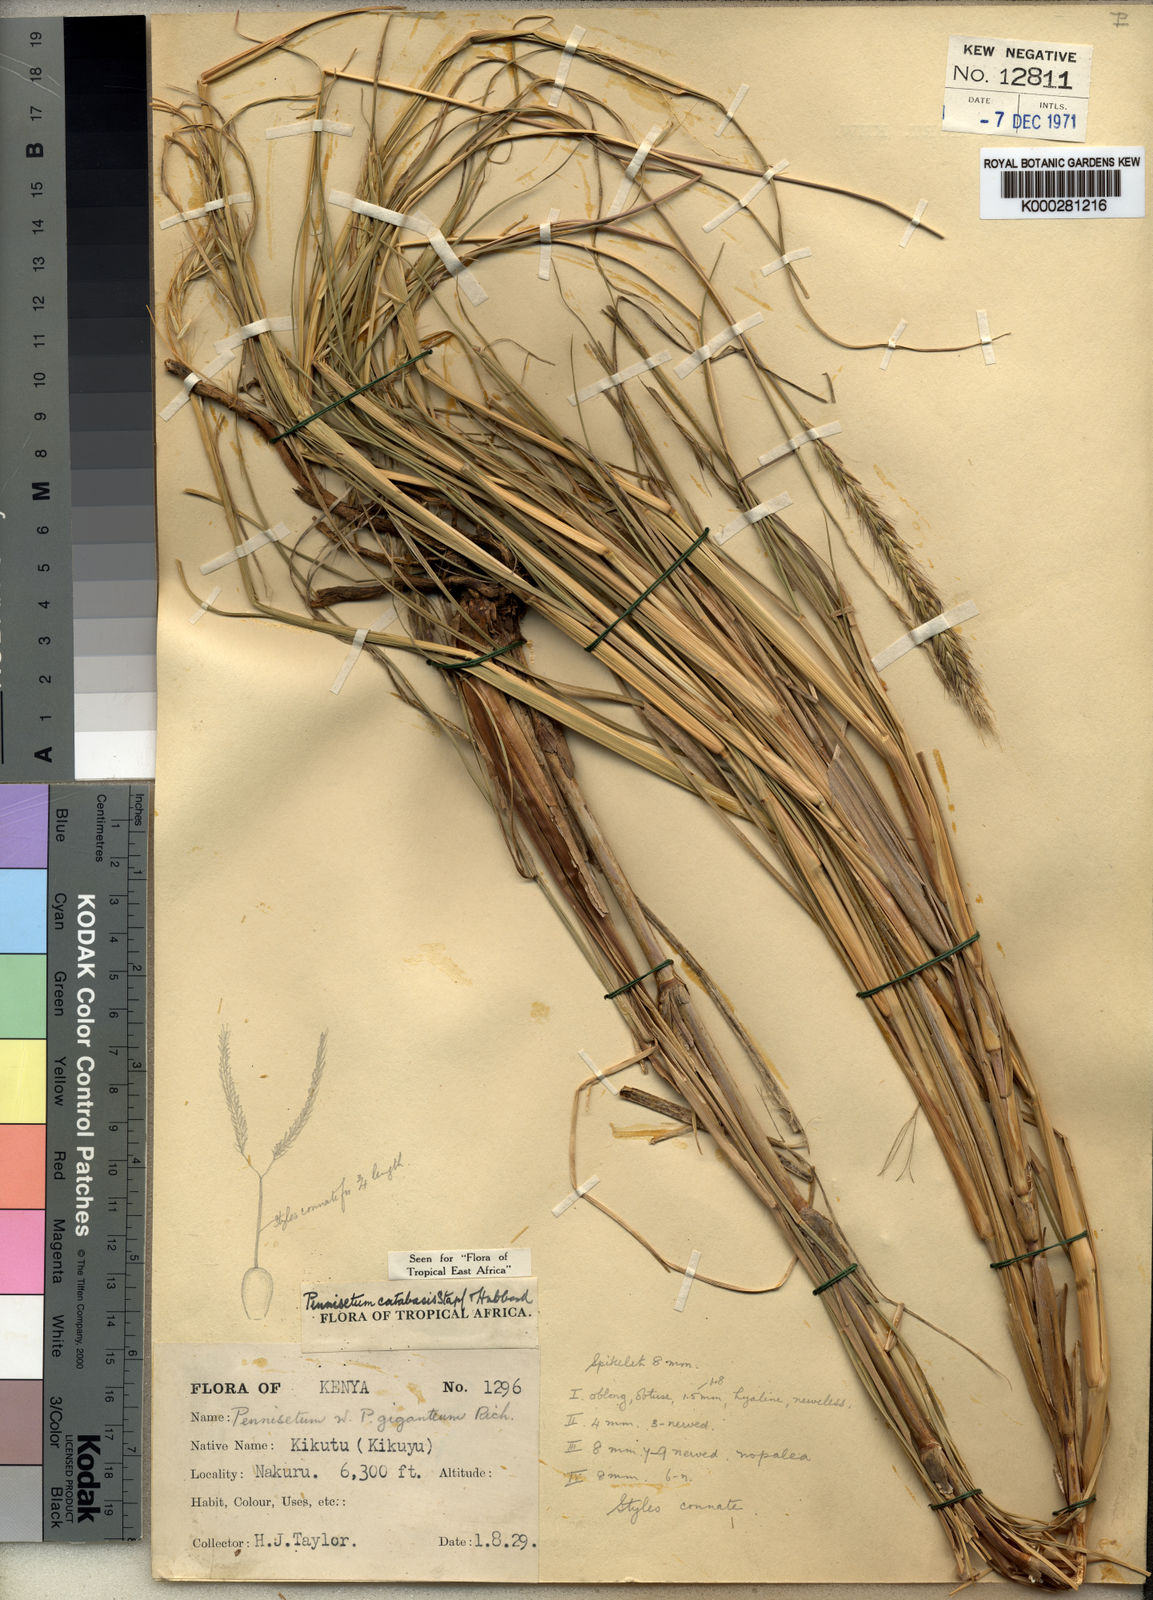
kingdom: Plantae
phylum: Tracheophyta
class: Liliopsida
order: Poales
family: Poaceae
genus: Cenchrus
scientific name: Cenchrus hohenackeri
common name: Moya grass
